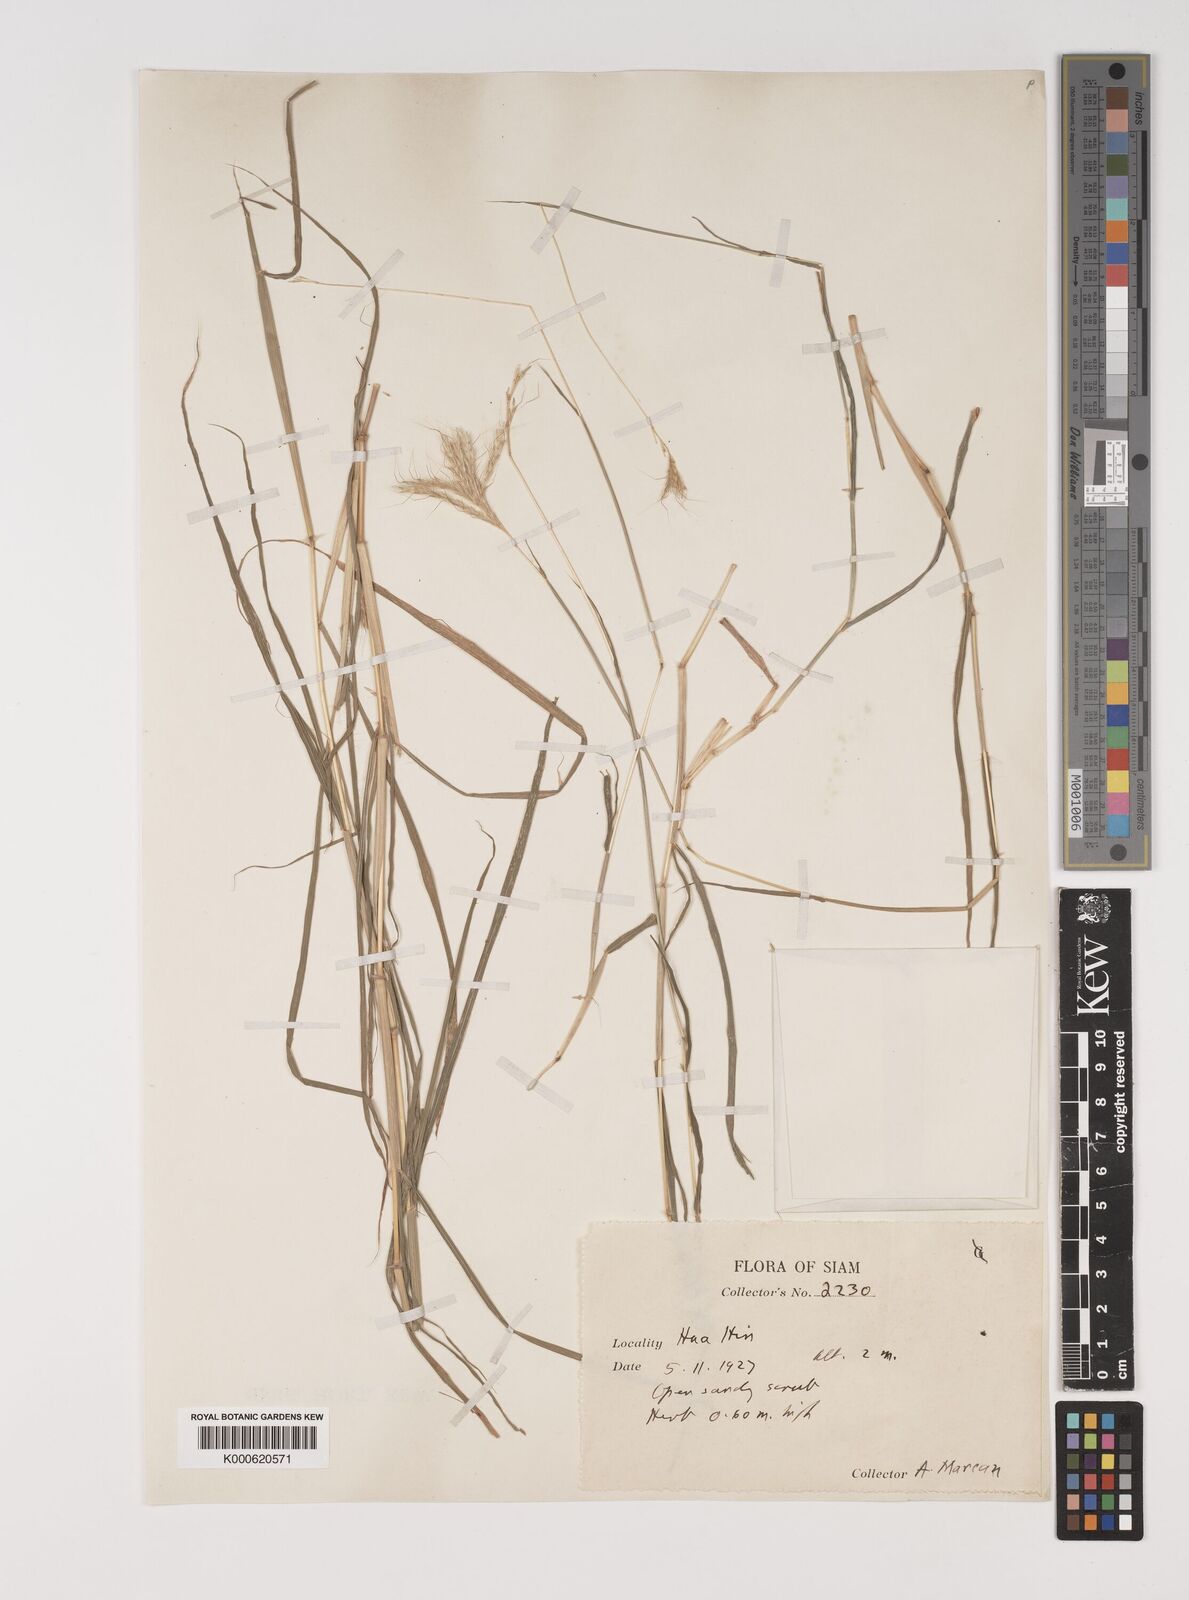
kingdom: Plantae
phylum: Tracheophyta
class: Liliopsida
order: Poales
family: Poaceae
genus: Bothriochloa
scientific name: Bothriochloa pertusa
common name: Pitted beardgrass
